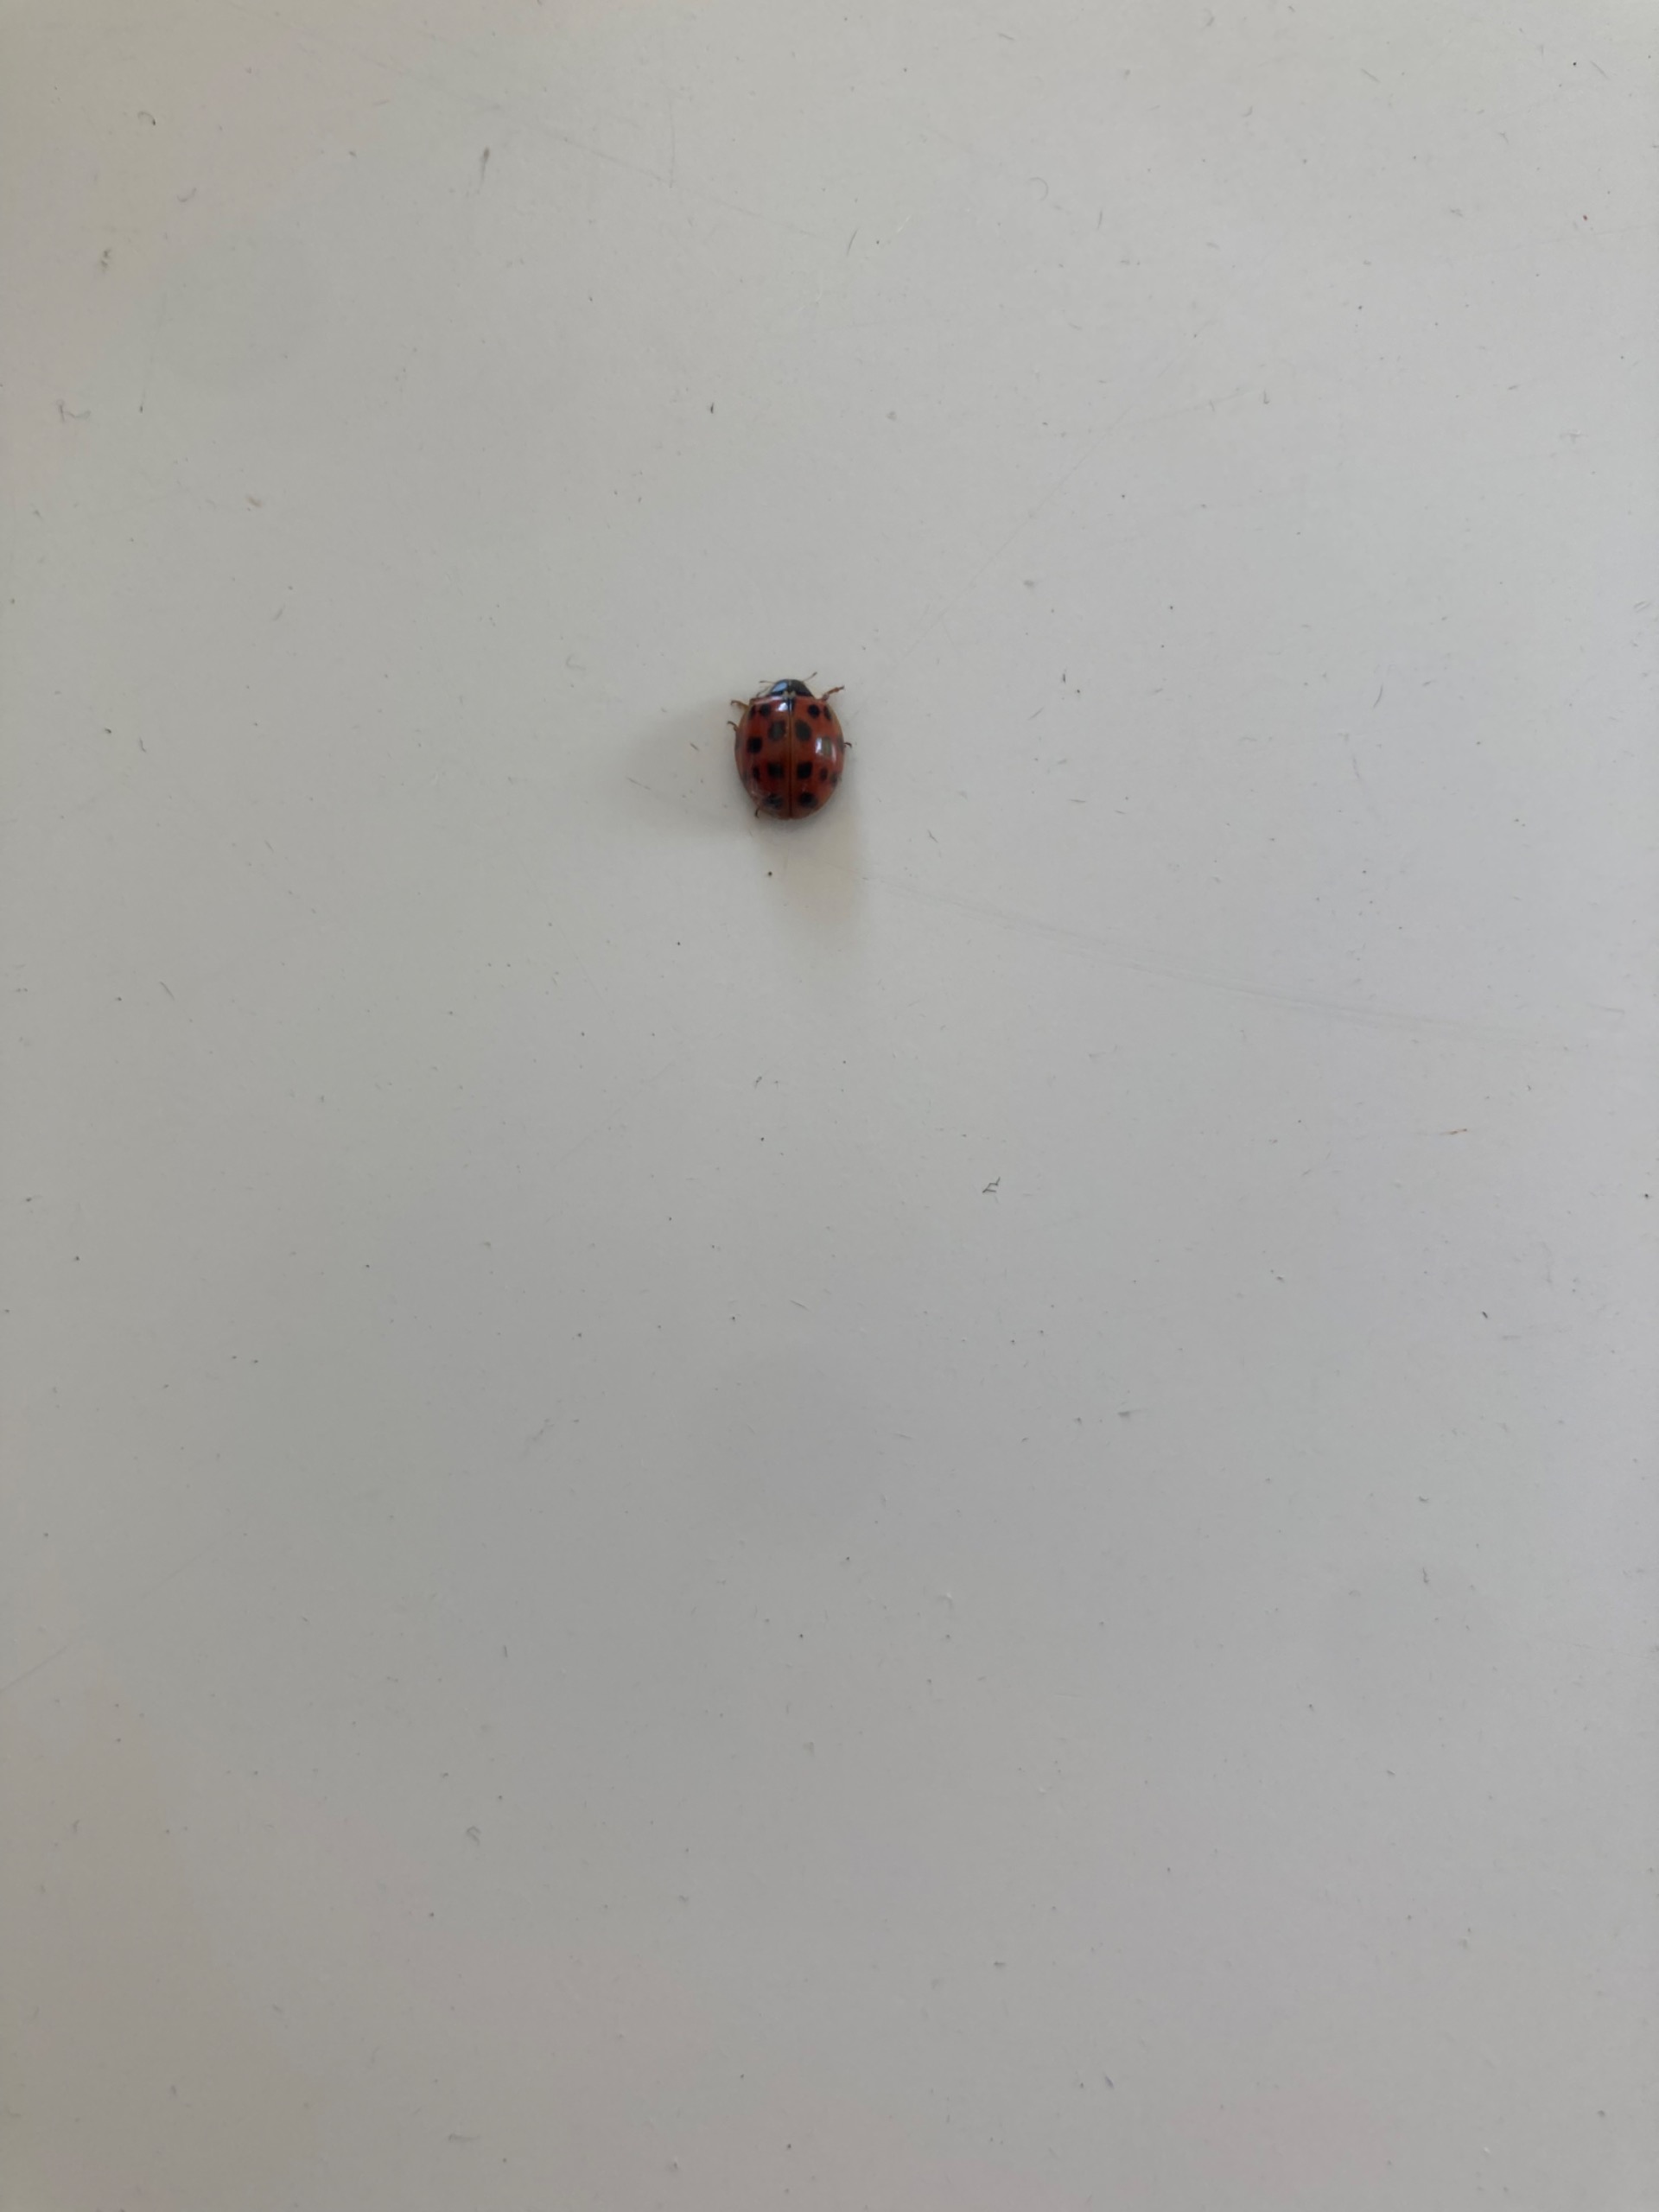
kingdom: Animalia
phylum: Arthropoda
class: Insecta
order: Coleoptera
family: Coccinellidae
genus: Harmonia
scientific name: Harmonia axyridis
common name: Harlekinmariehøne
